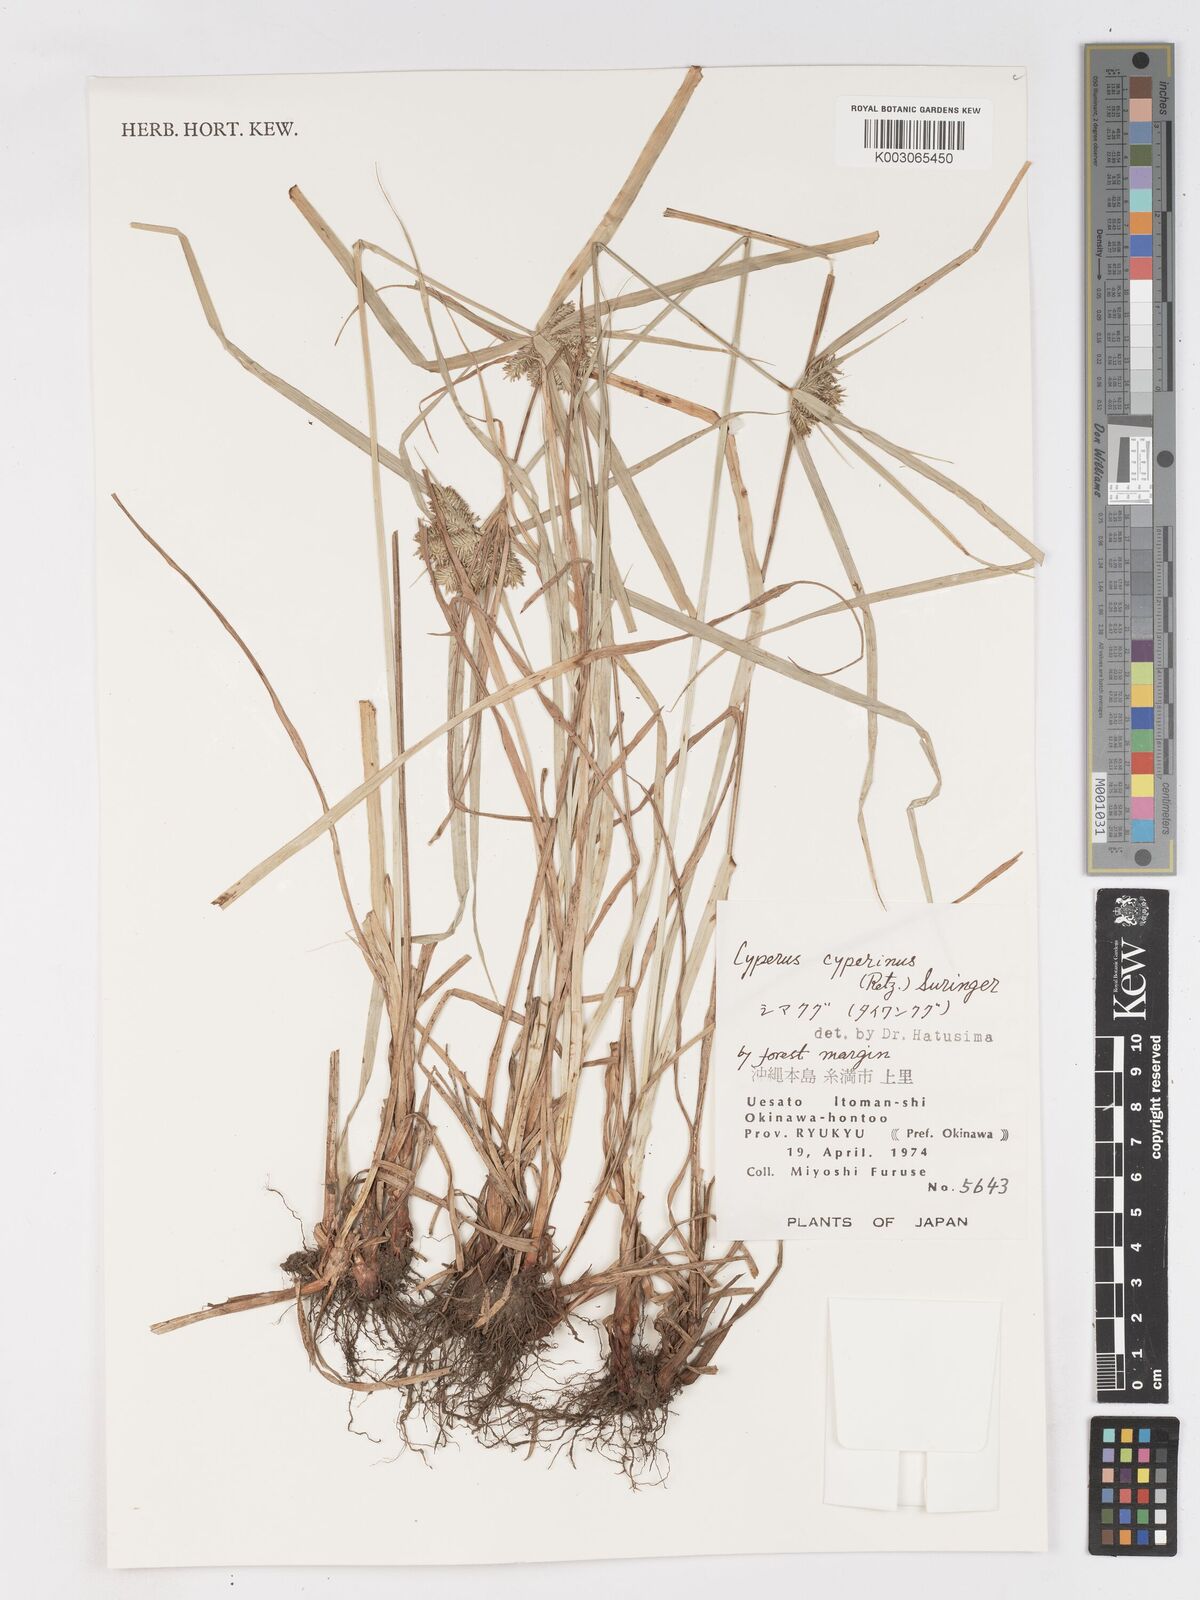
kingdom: Plantae
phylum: Tracheophyta
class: Liliopsida
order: Poales
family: Cyperaceae
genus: Cyperus
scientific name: Cyperus cyperinus
